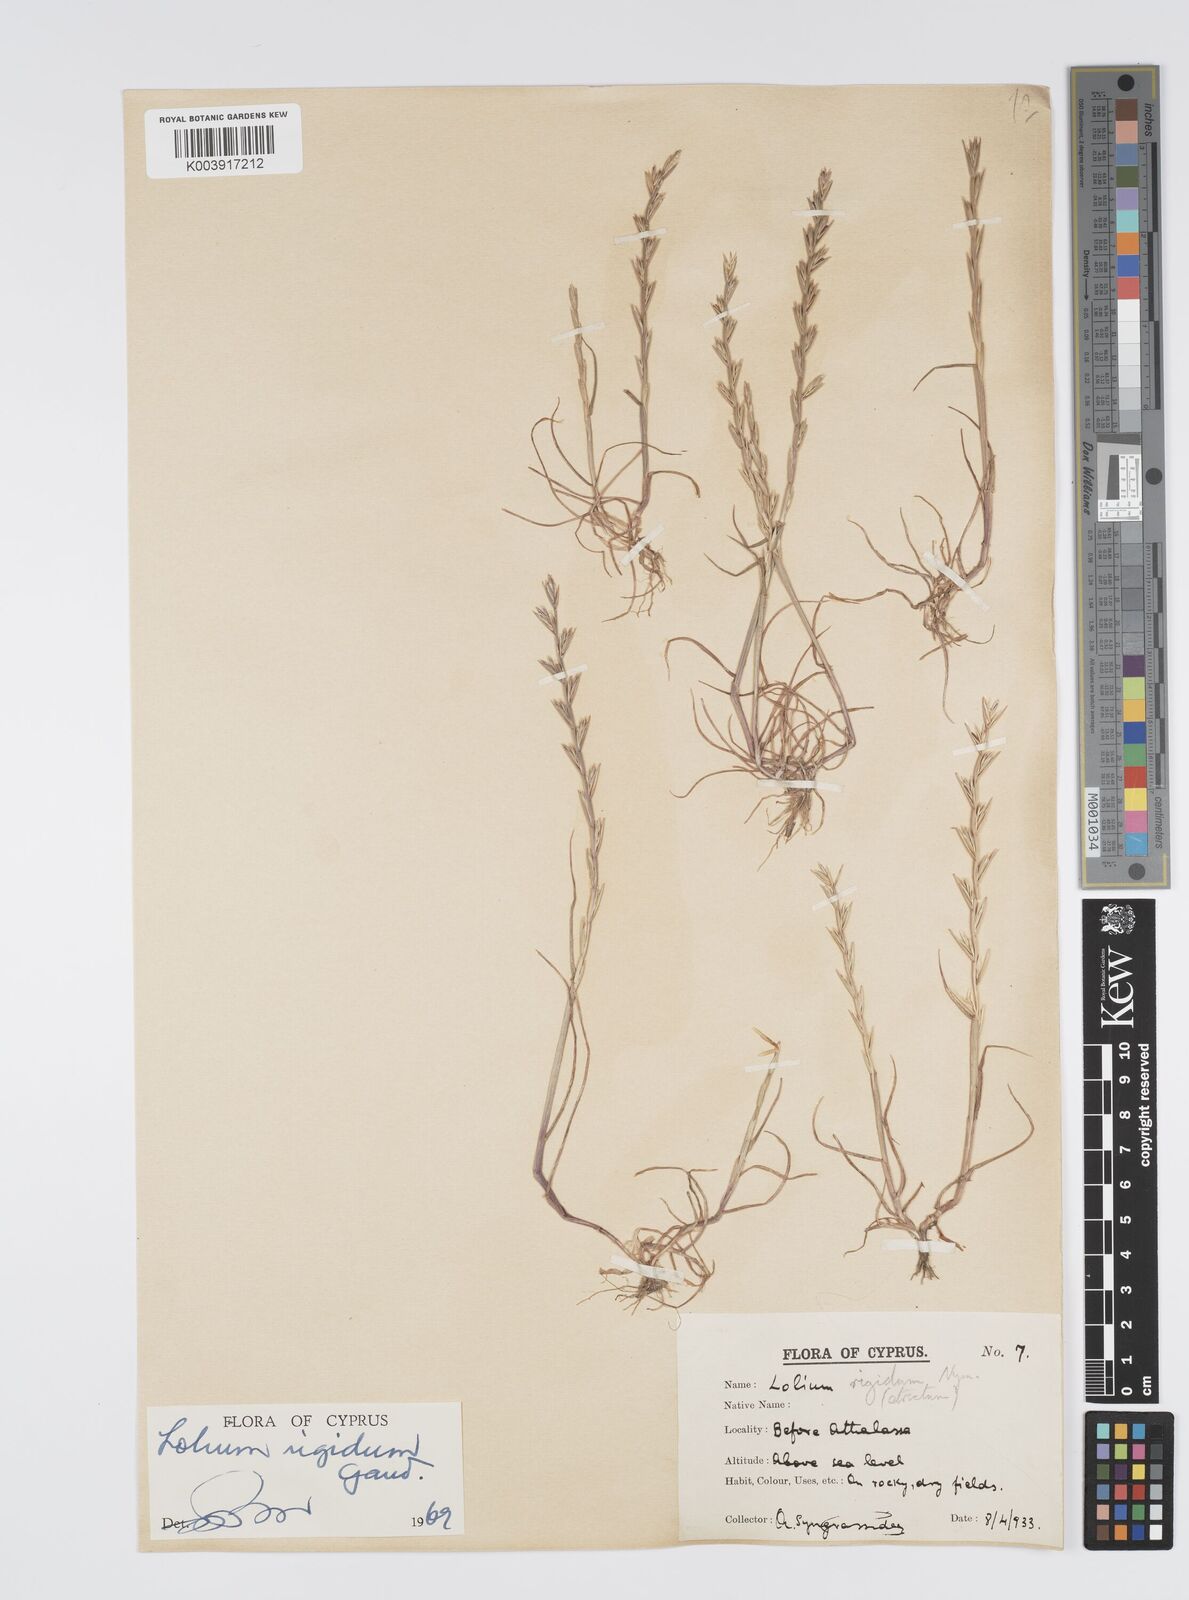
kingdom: Plantae
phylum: Tracheophyta
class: Liliopsida
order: Poales
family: Poaceae
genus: Lolium
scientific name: Lolium rigidum
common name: Wimmera ryegrass
